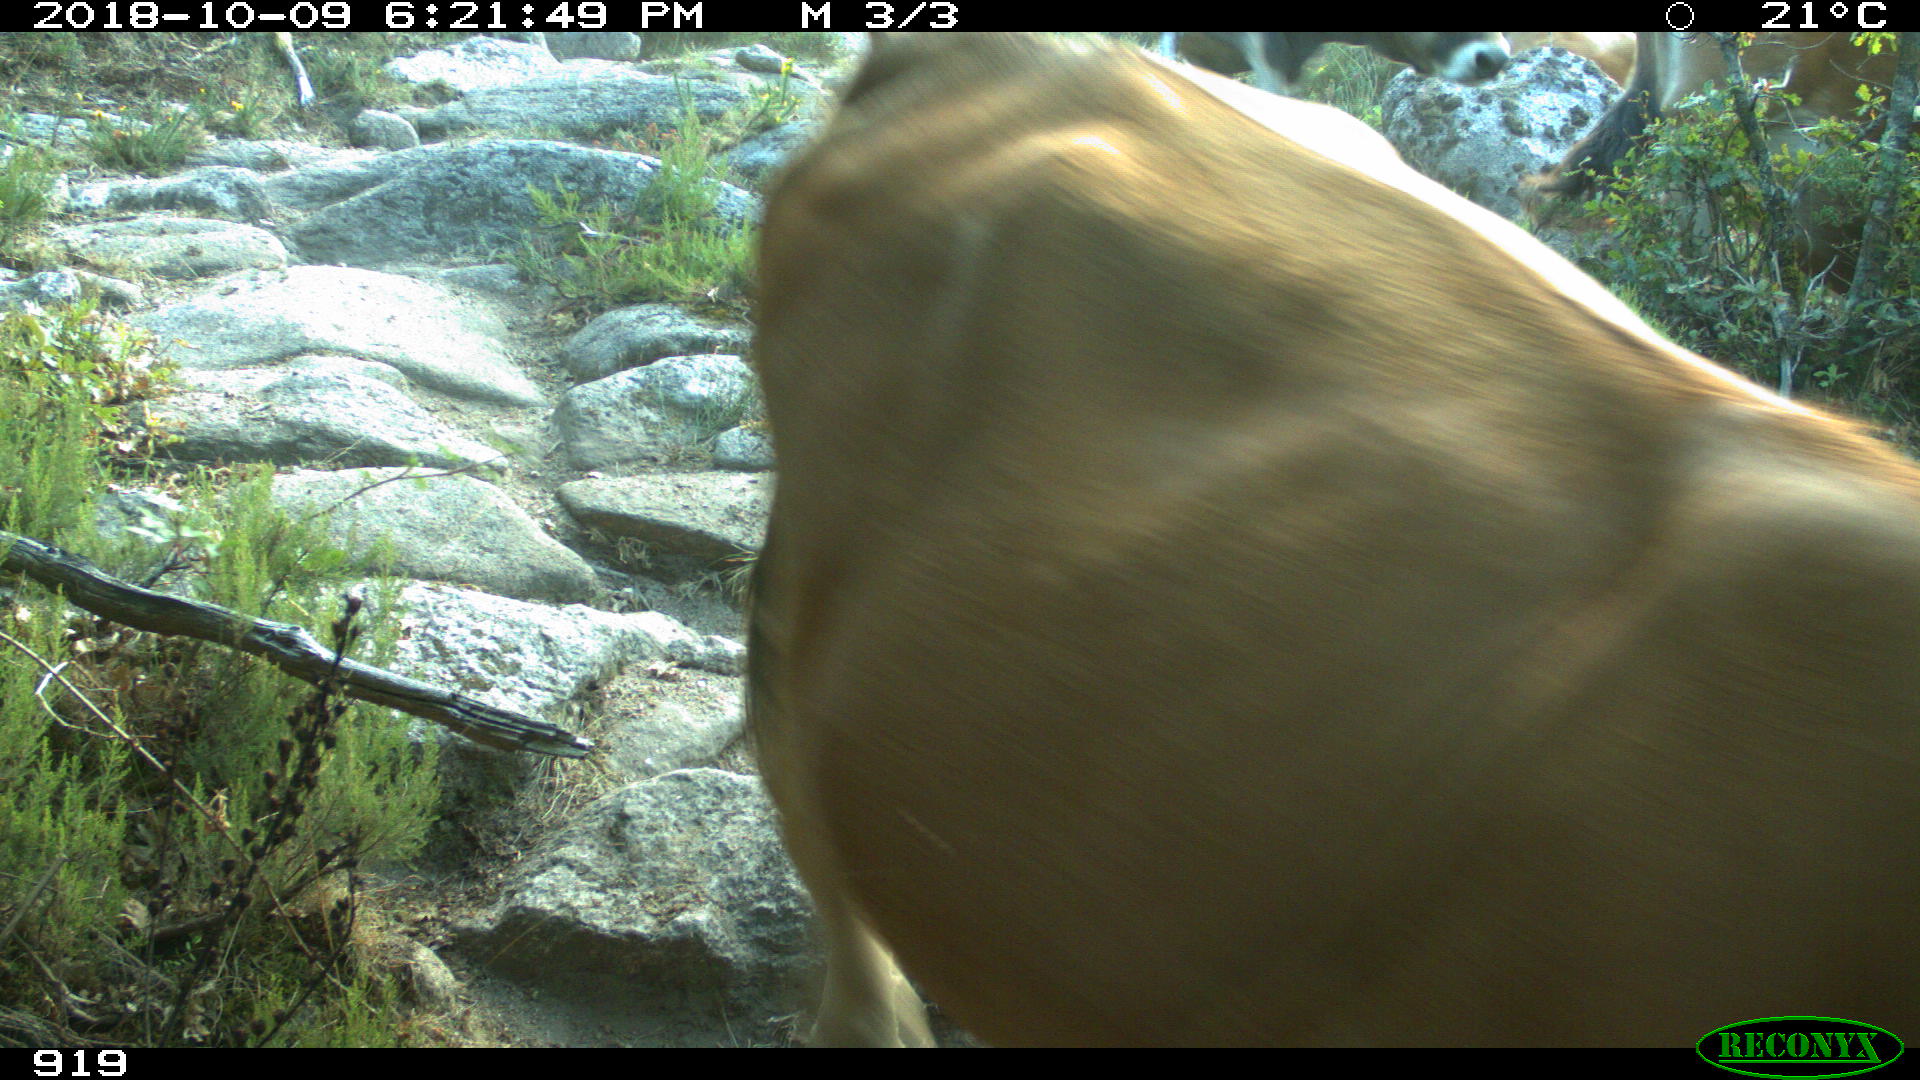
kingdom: Animalia
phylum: Chordata
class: Mammalia
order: Artiodactyla
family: Bovidae
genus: Bos
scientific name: Bos taurus
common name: Domesticated cattle
